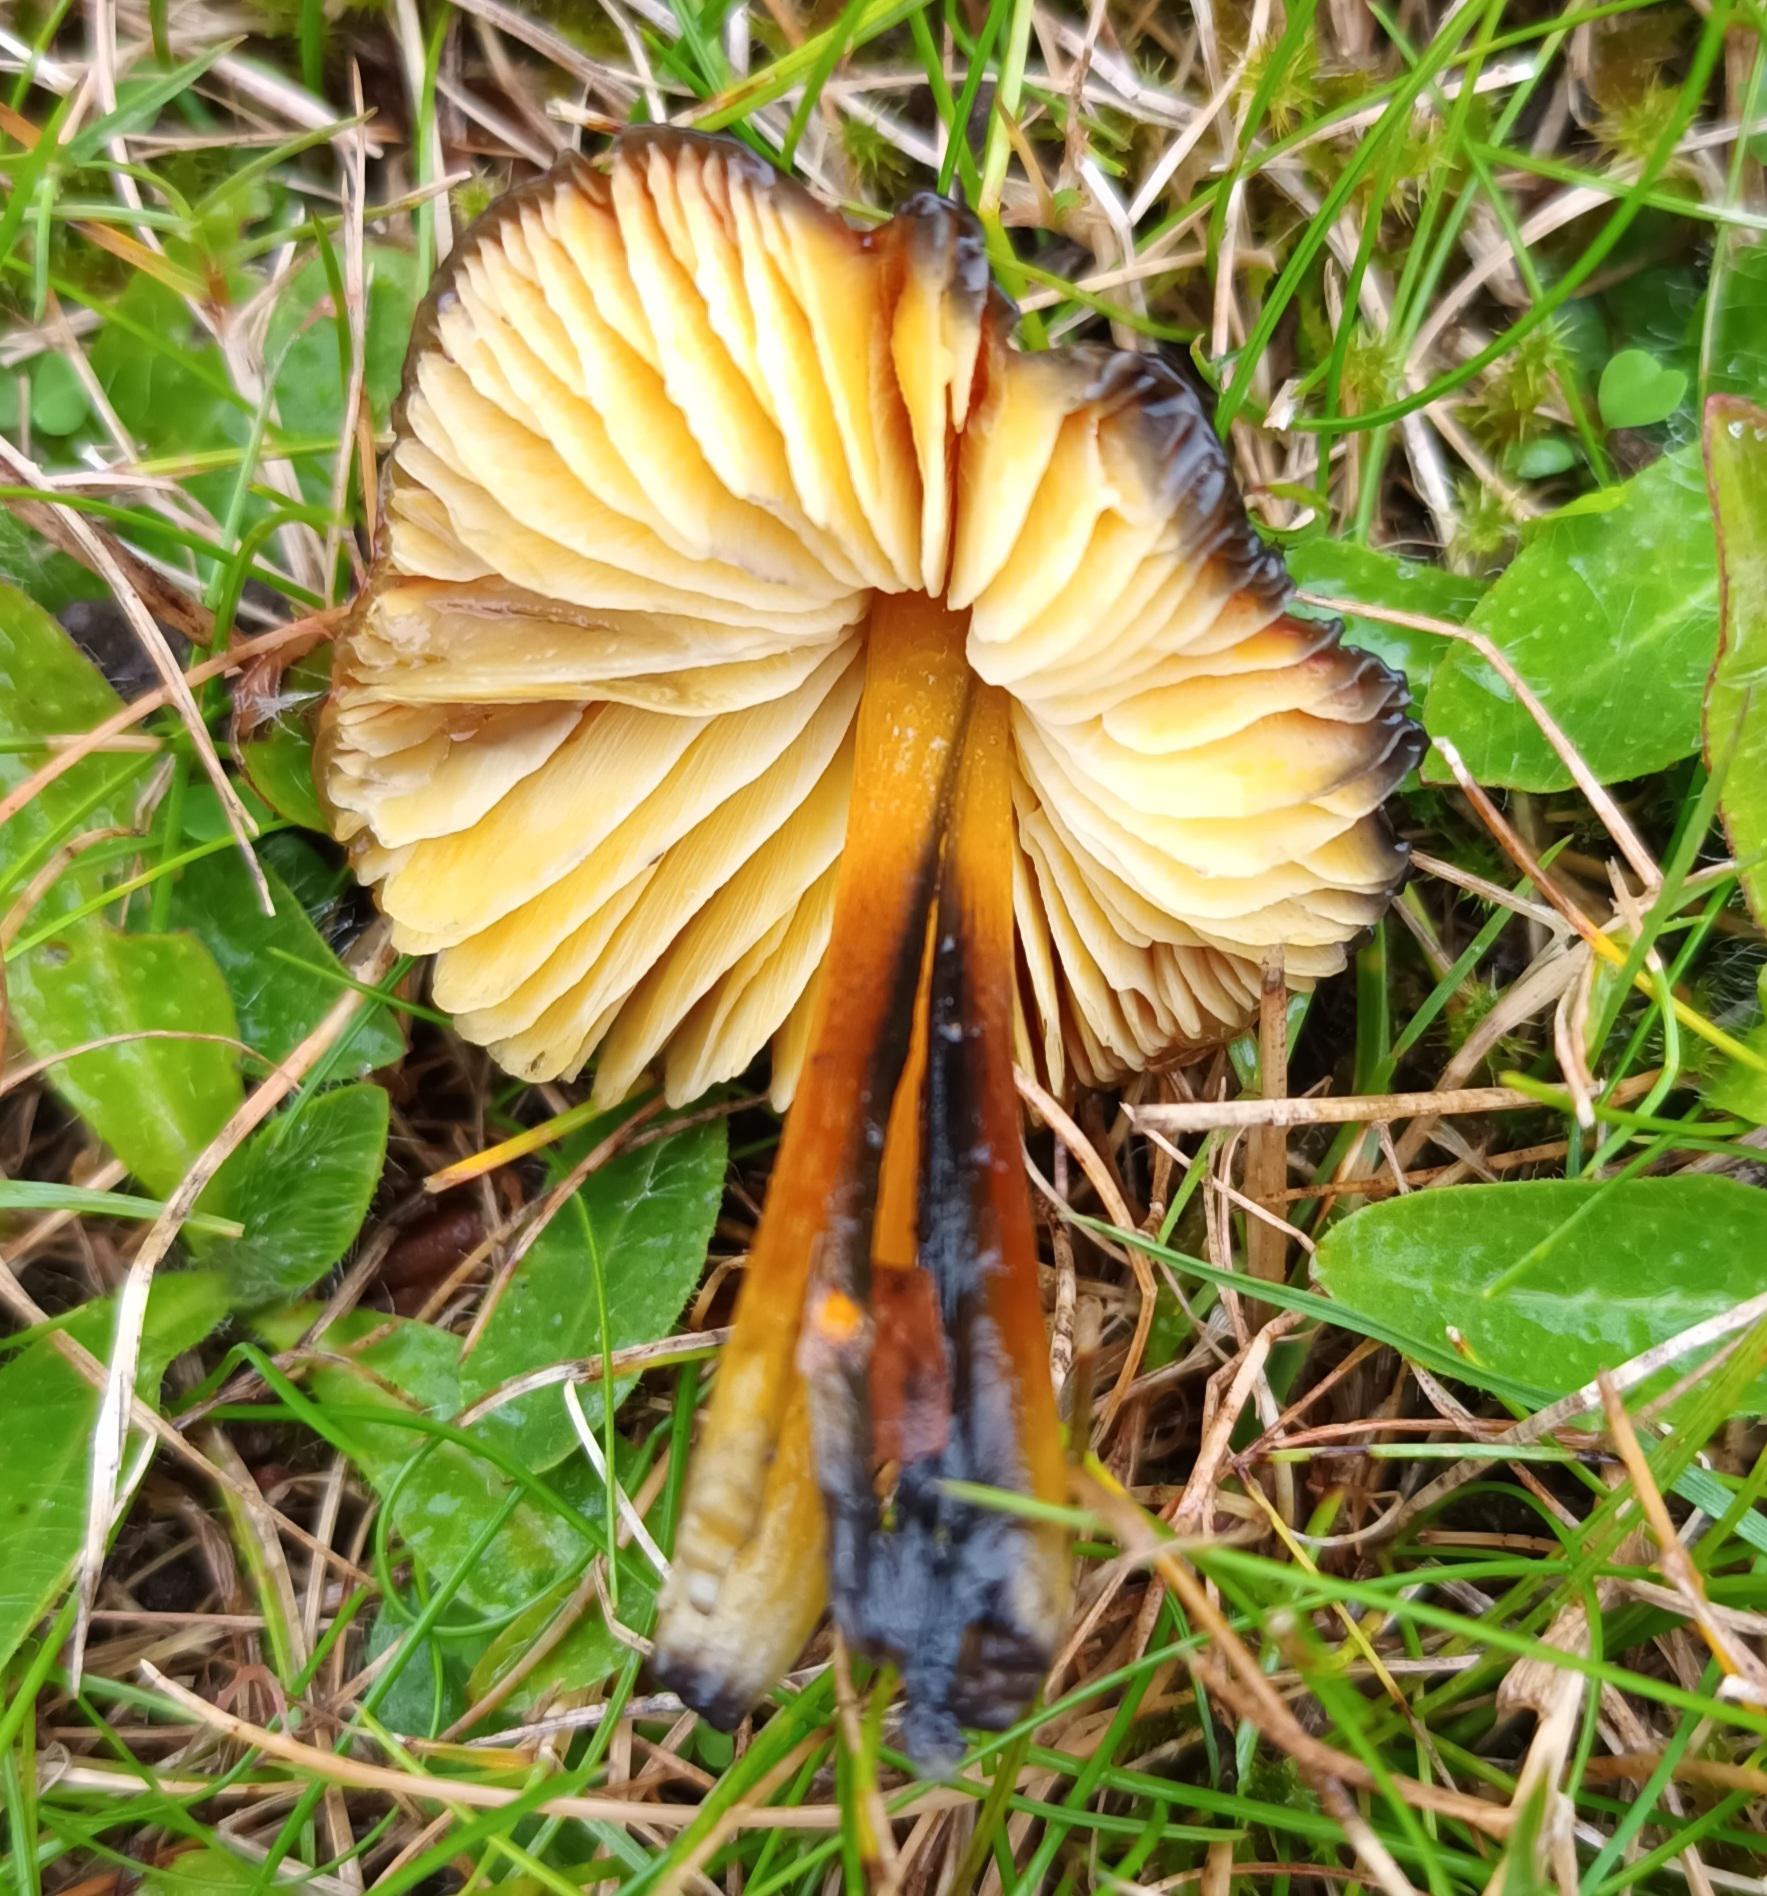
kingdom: Fungi
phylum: Basidiomycota
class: Agaricomycetes
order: Agaricales
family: Hygrophoraceae
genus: Hygrocybe
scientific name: Hygrocybe conica
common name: Kegle-vokshat
